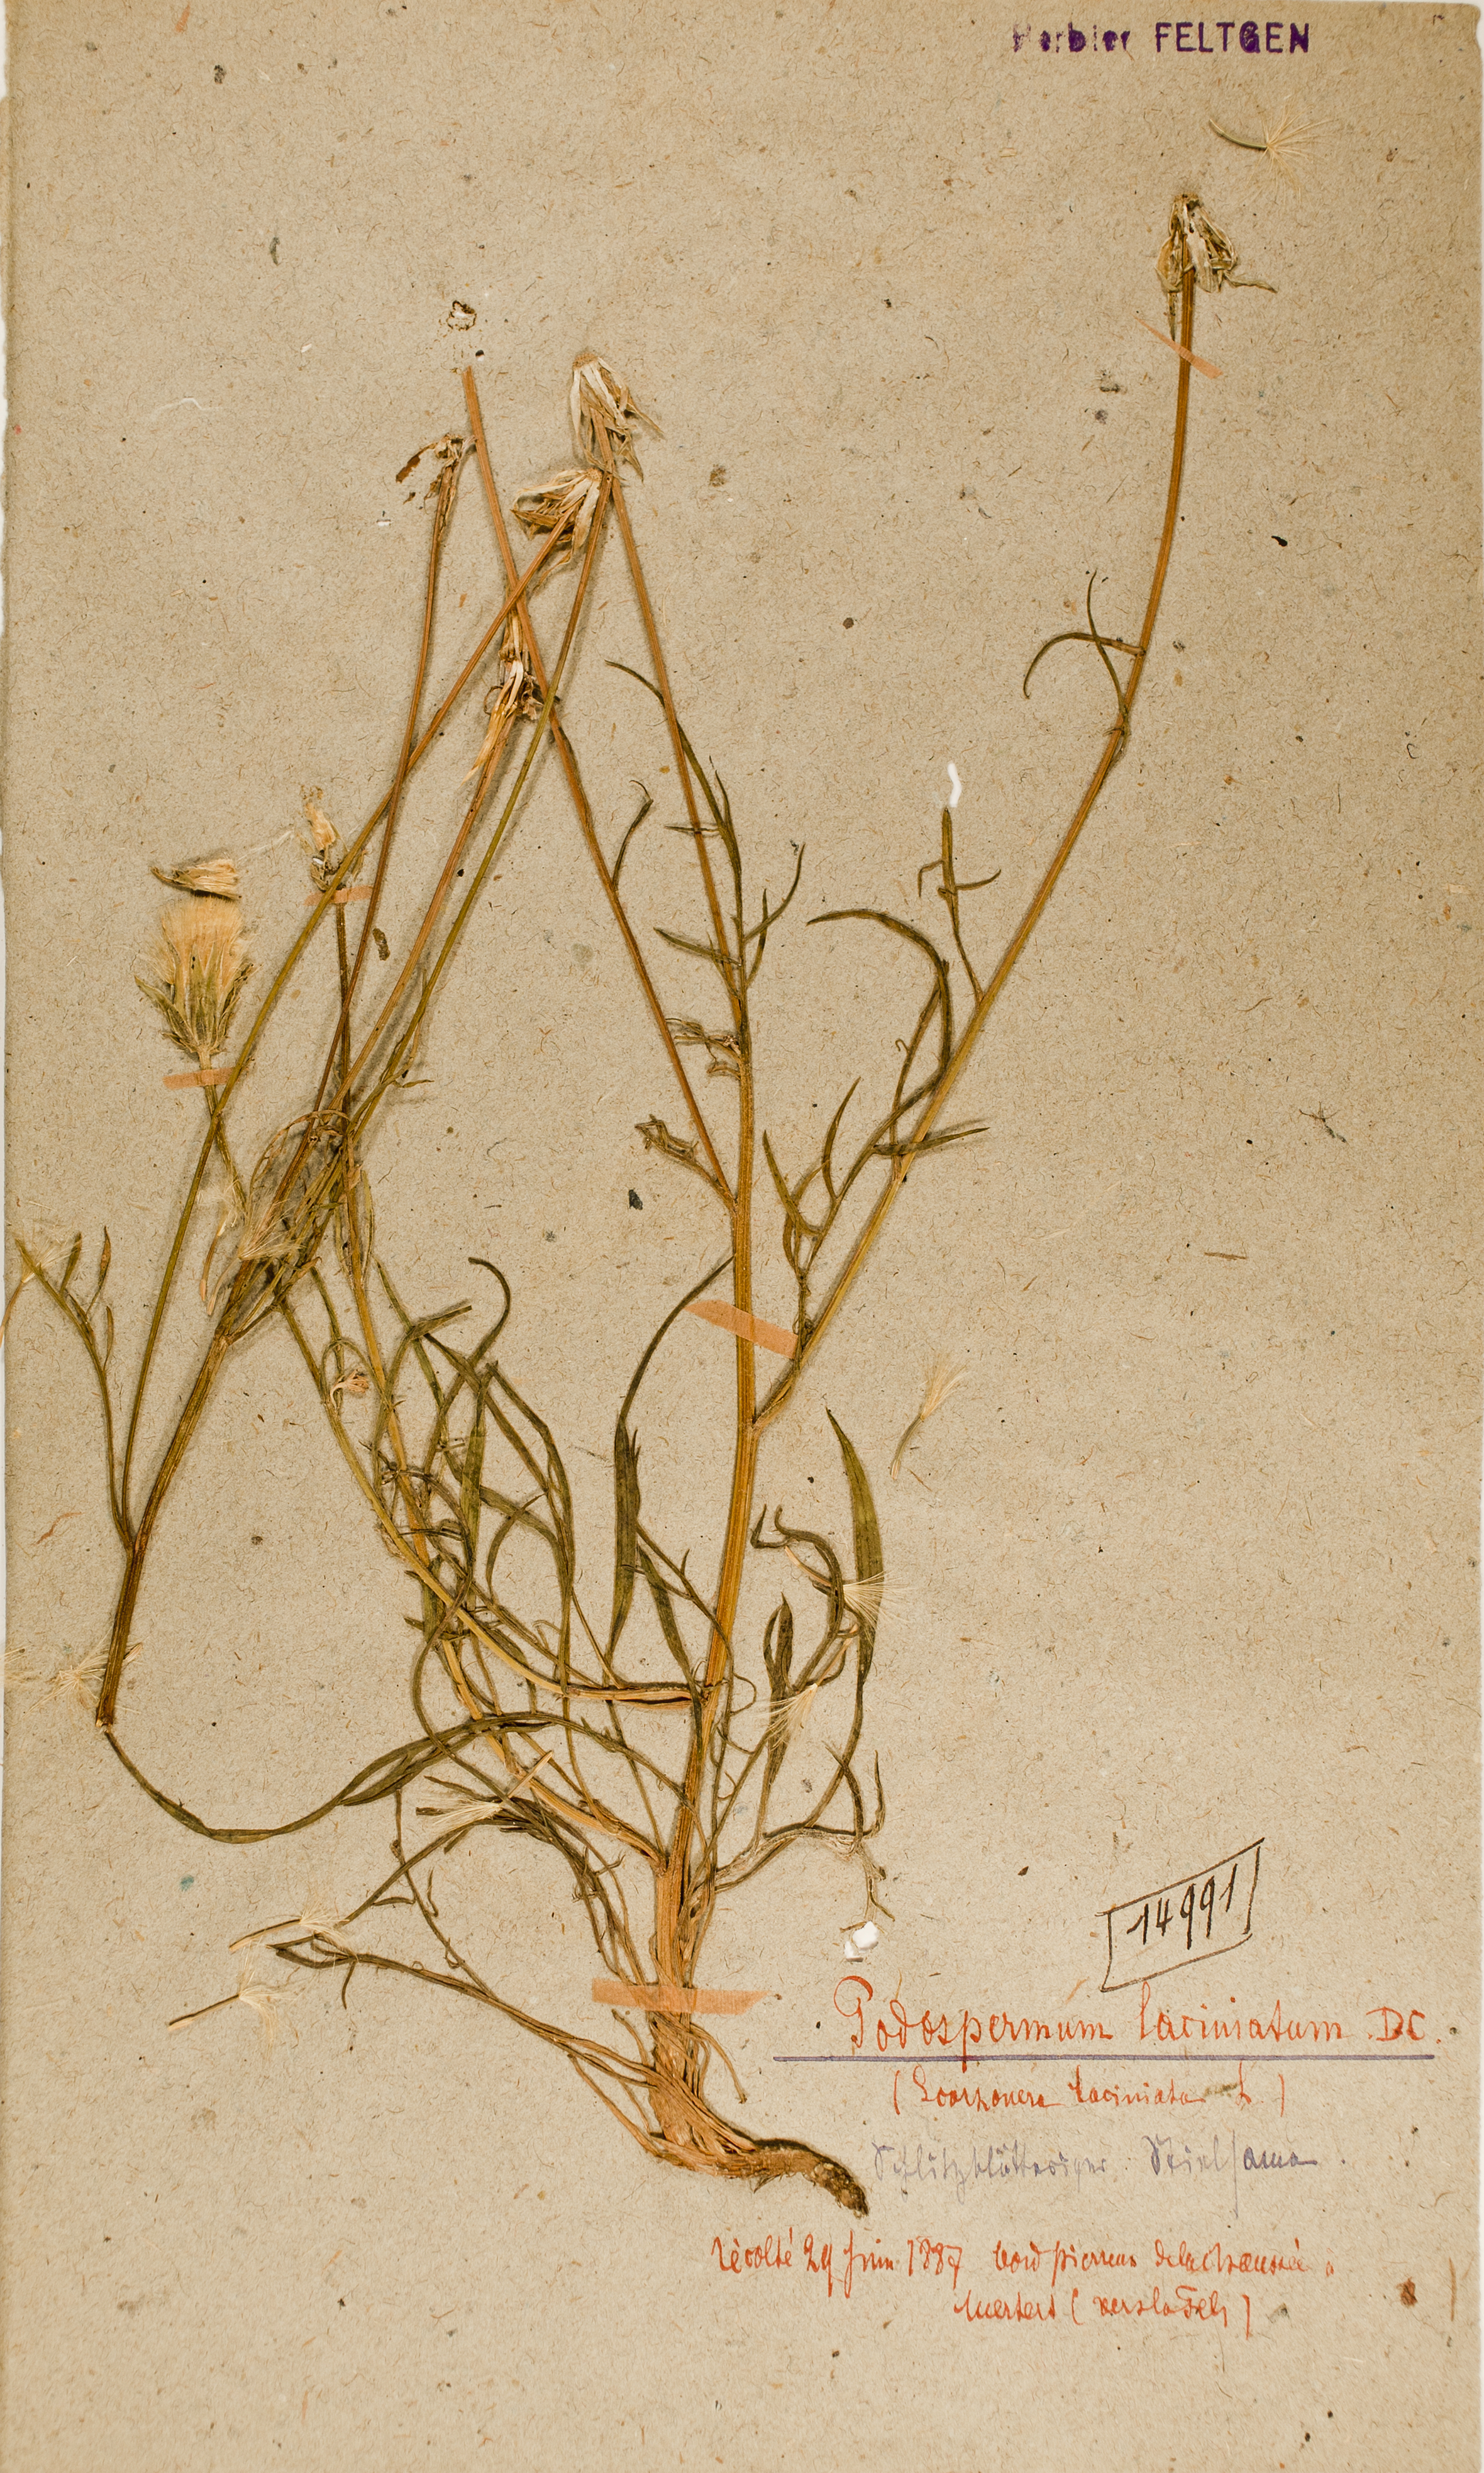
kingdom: Plantae
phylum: Tracheophyta
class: Magnoliopsida
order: Asterales
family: Asteraceae
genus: Scorzonera
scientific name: Scorzonera laciniata
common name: Cutleaf vipergrass
